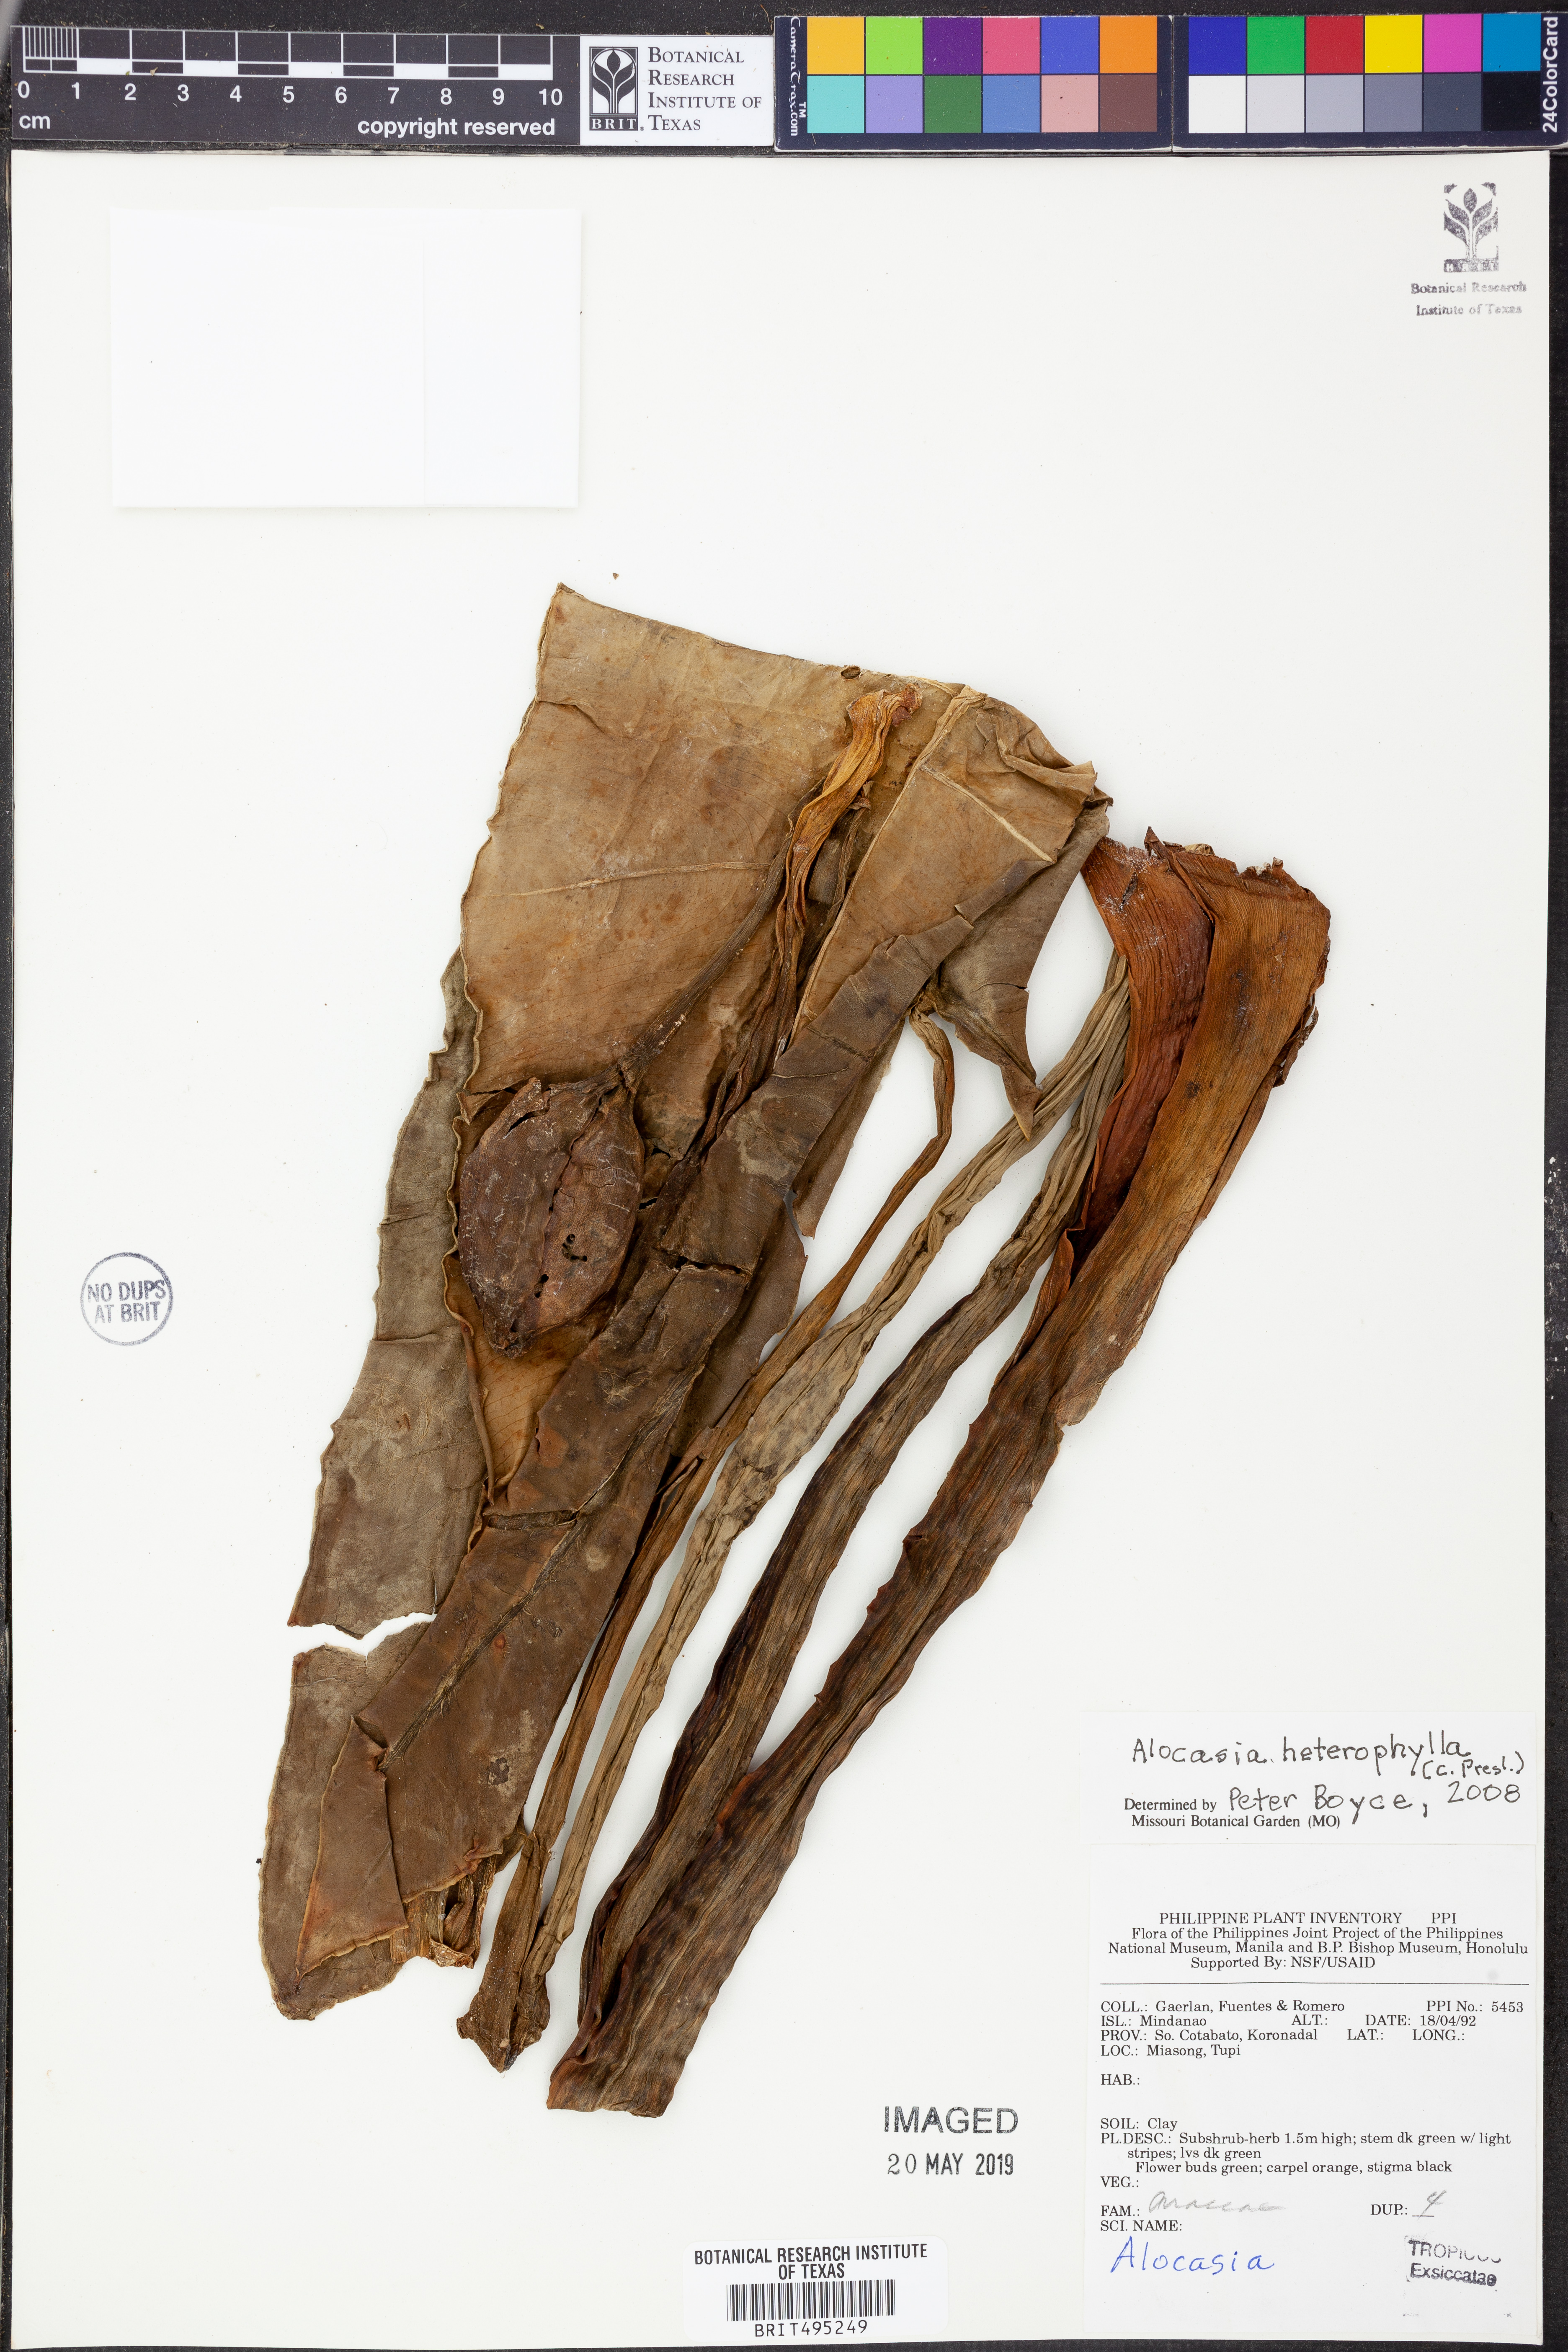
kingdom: Plantae
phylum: Tracheophyta
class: Liliopsida
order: Alismatales
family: Araceae
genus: Alocasia
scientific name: Alocasia heterophylla
